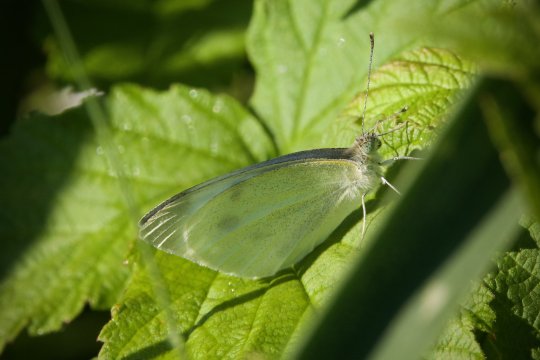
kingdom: Animalia
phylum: Arthropoda
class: Insecta
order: Lepidoptera
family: Pieridae
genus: Pieris
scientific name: Pieris rapae
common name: Cabbage White
